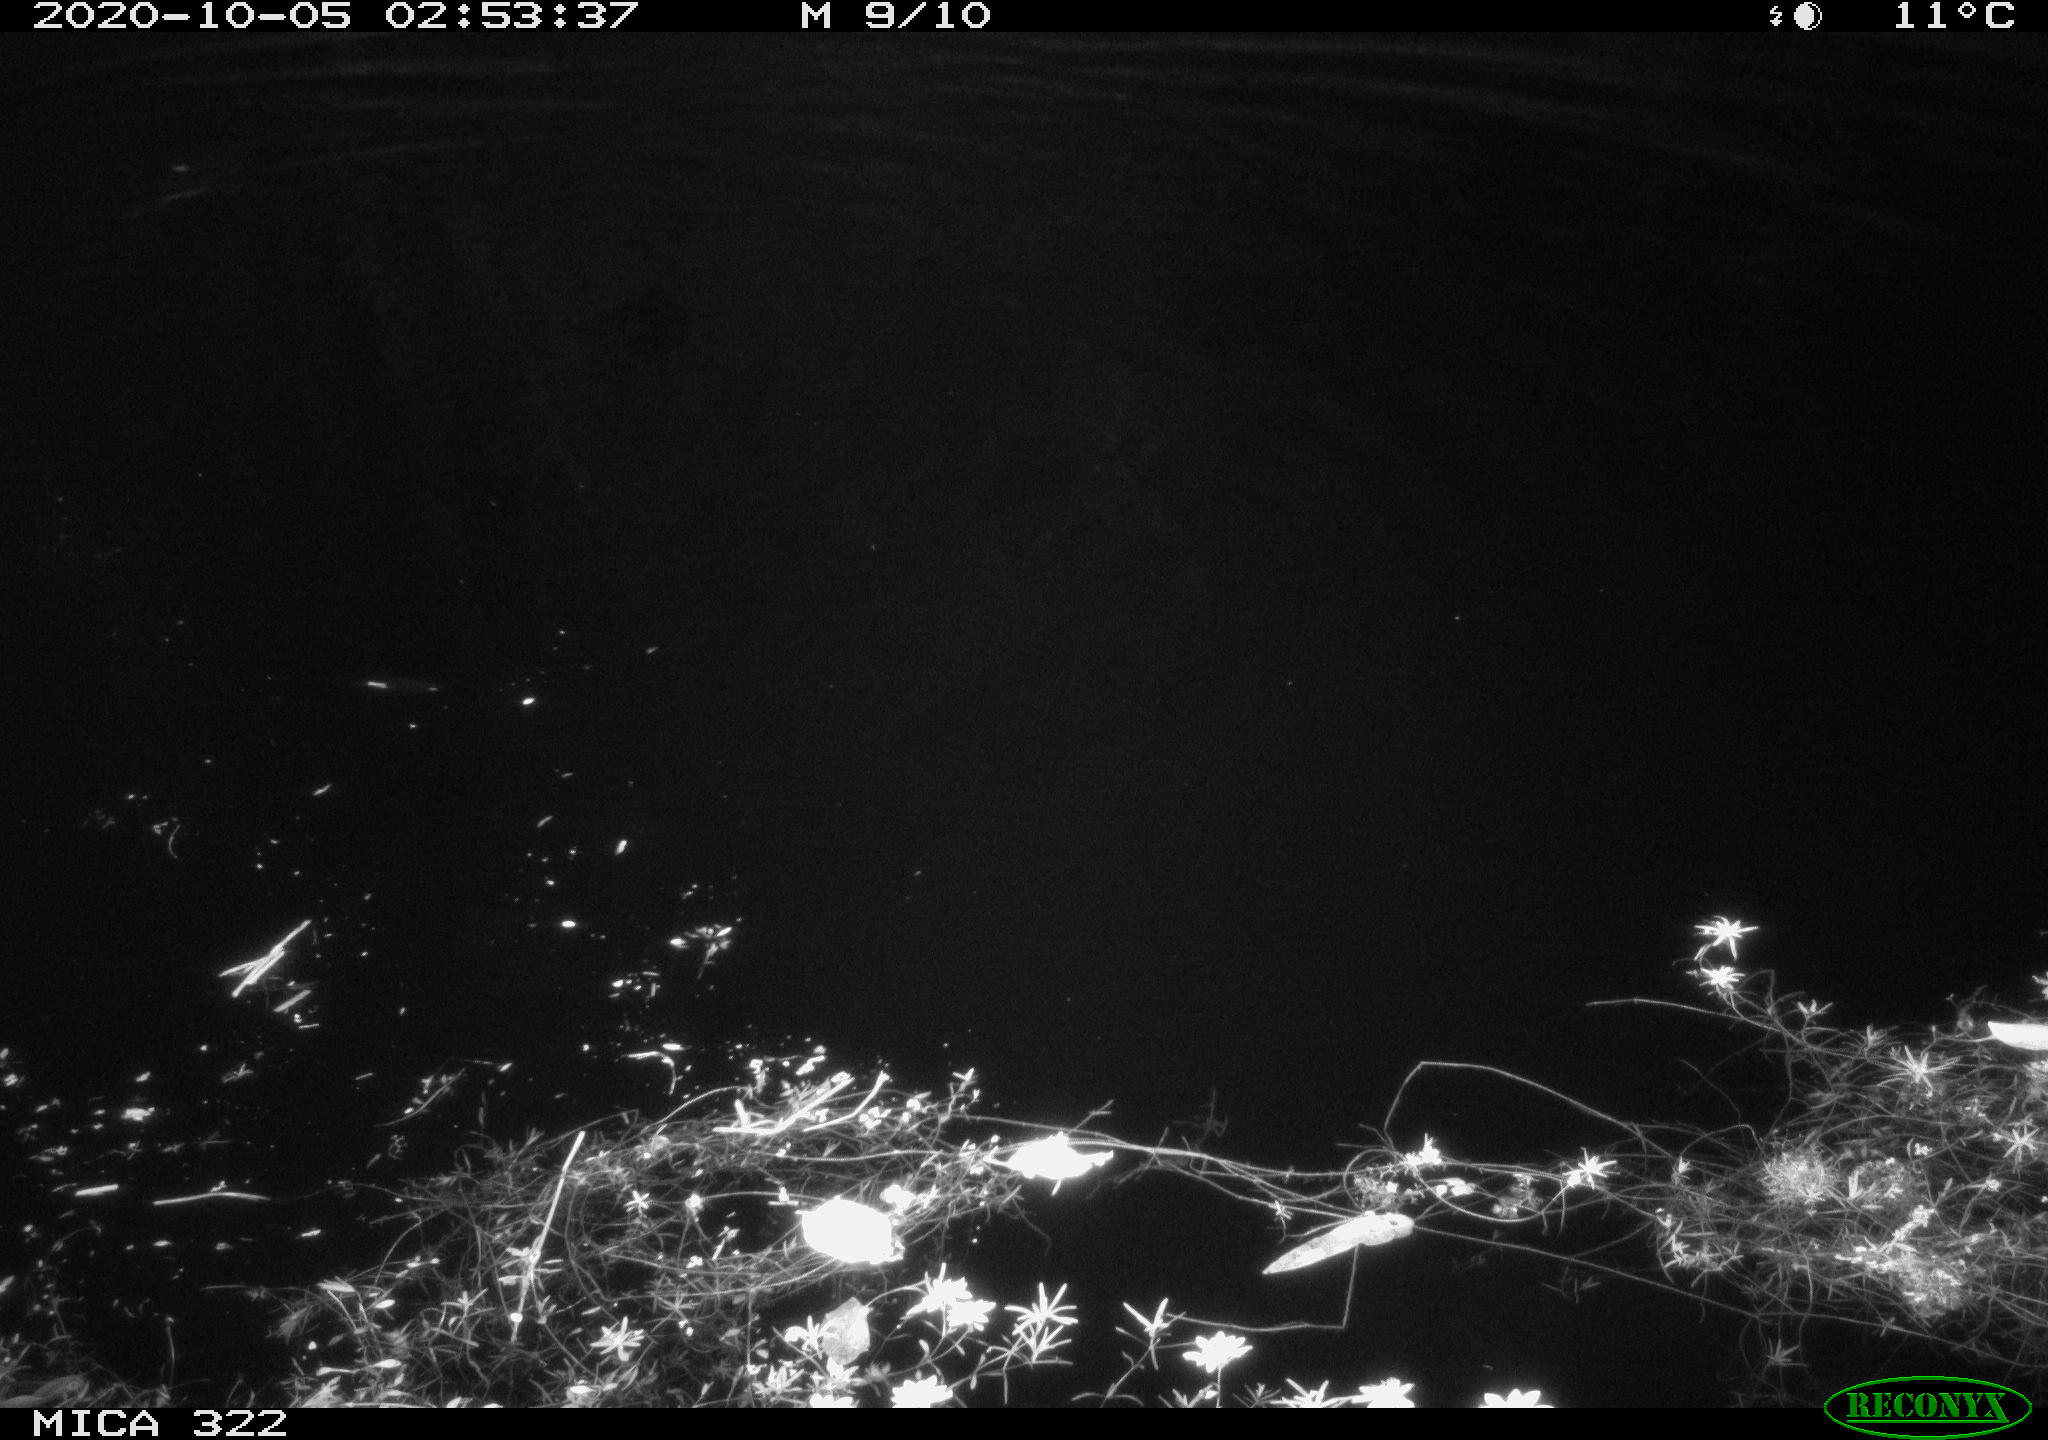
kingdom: Animalia
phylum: Chordata
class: Aves
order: Anseriformes
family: Anatidae
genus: Mareca
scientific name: Mareca strepera
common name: Gadwall
